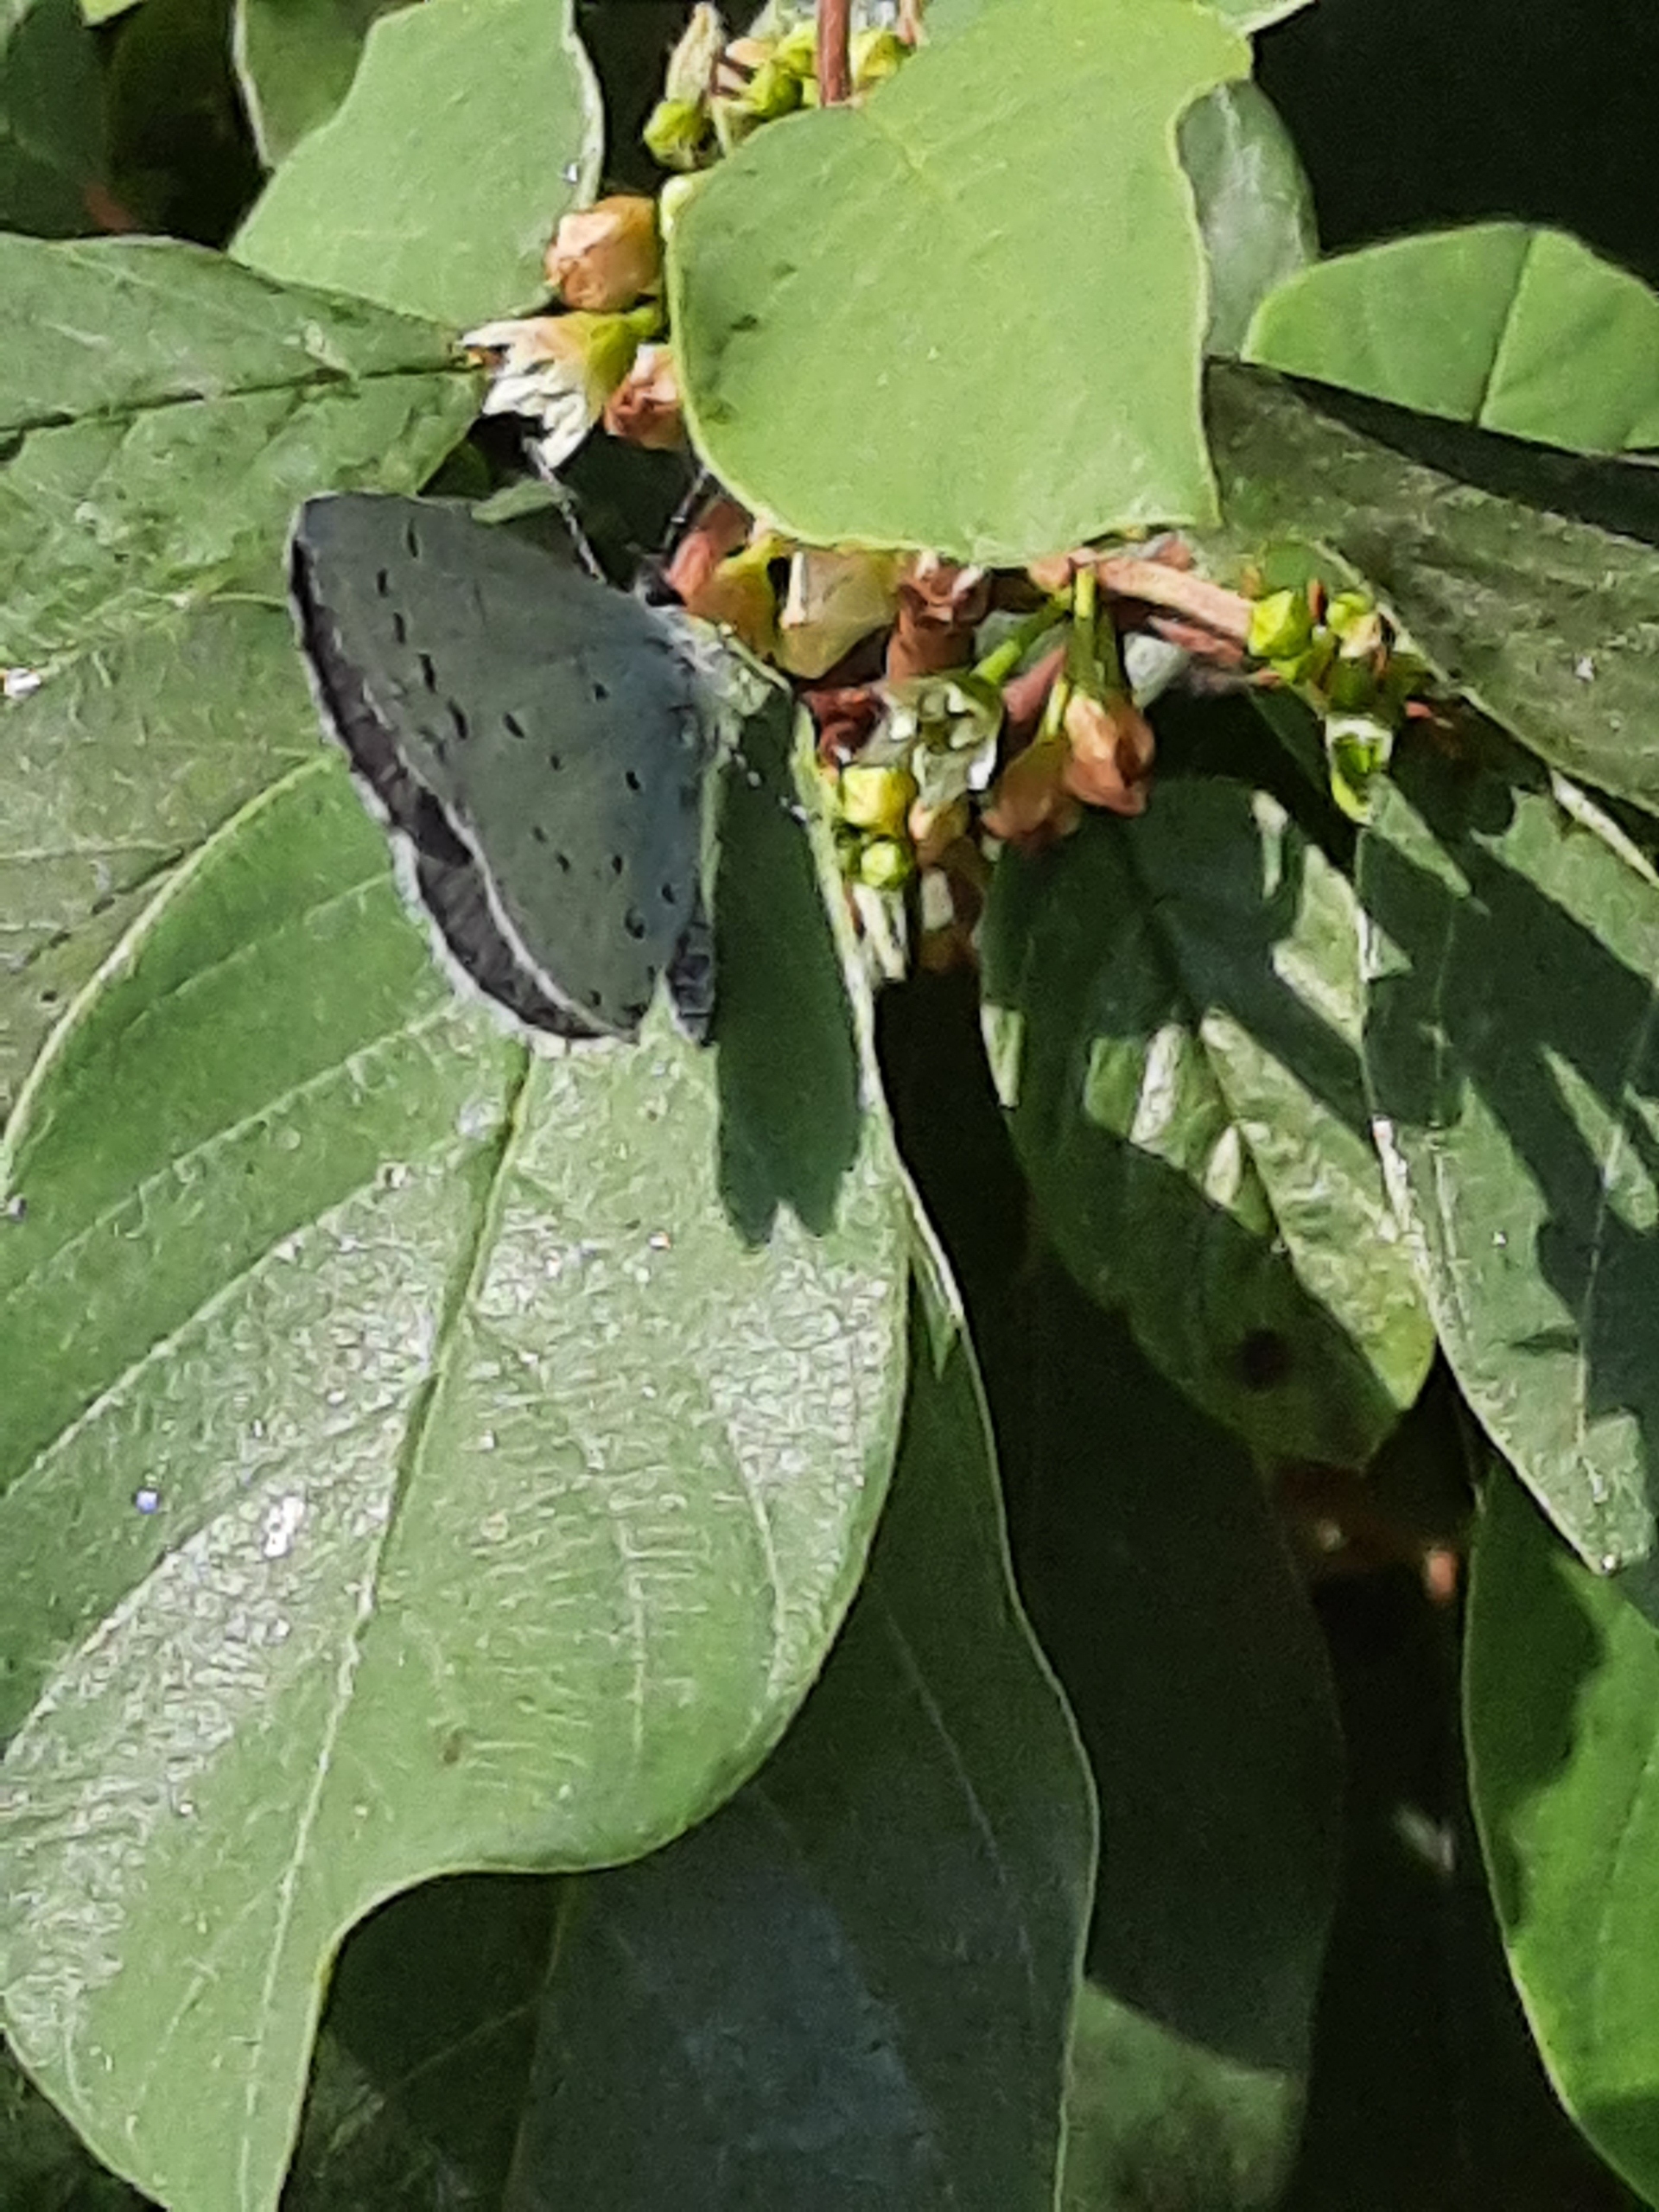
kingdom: Animalia
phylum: Arthropoda
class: Insecta
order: Lepidoptera
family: Lycaenidae
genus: Celastrina
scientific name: Celastrina argiolus
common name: Skovblåfugl
